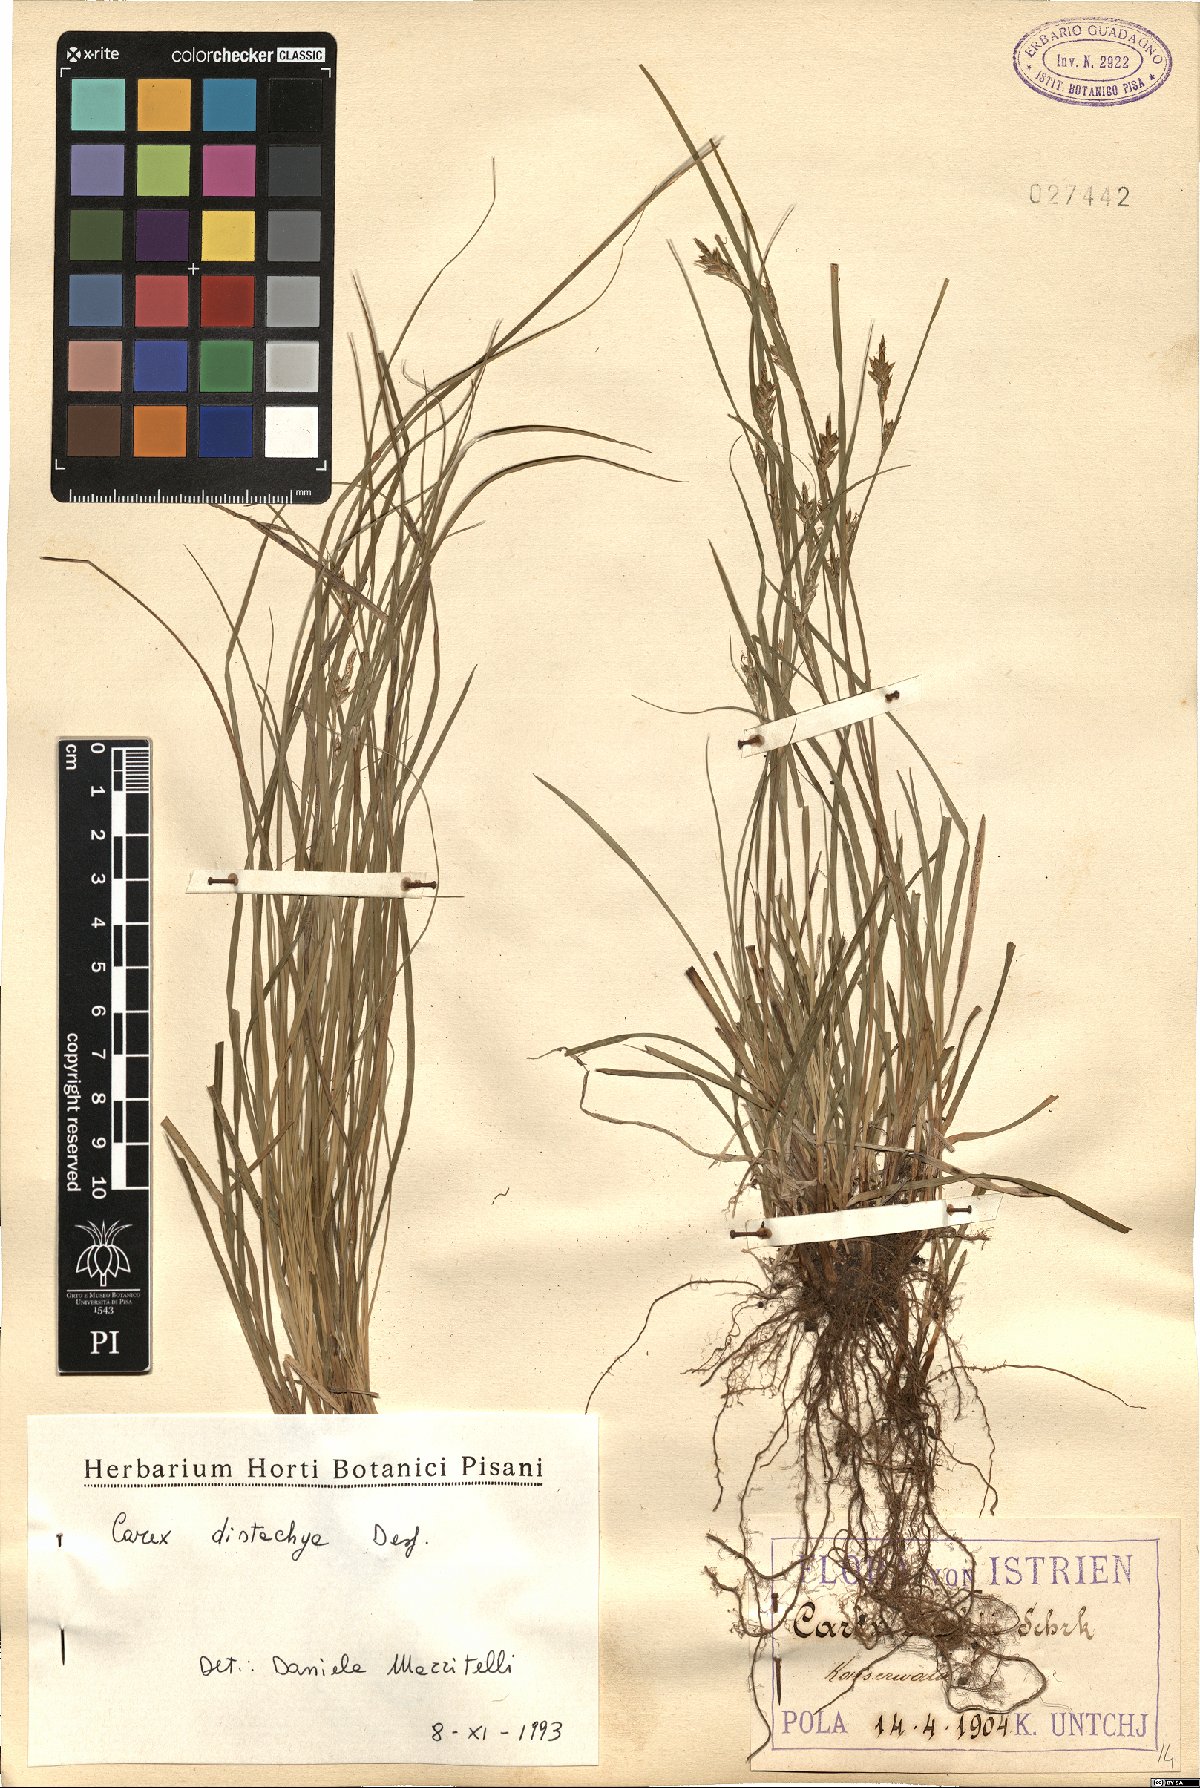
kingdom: Plantae
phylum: Tracheophyta
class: Liliopsida
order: Poales
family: Cyperaceae
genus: Carex
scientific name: Carex distachya
